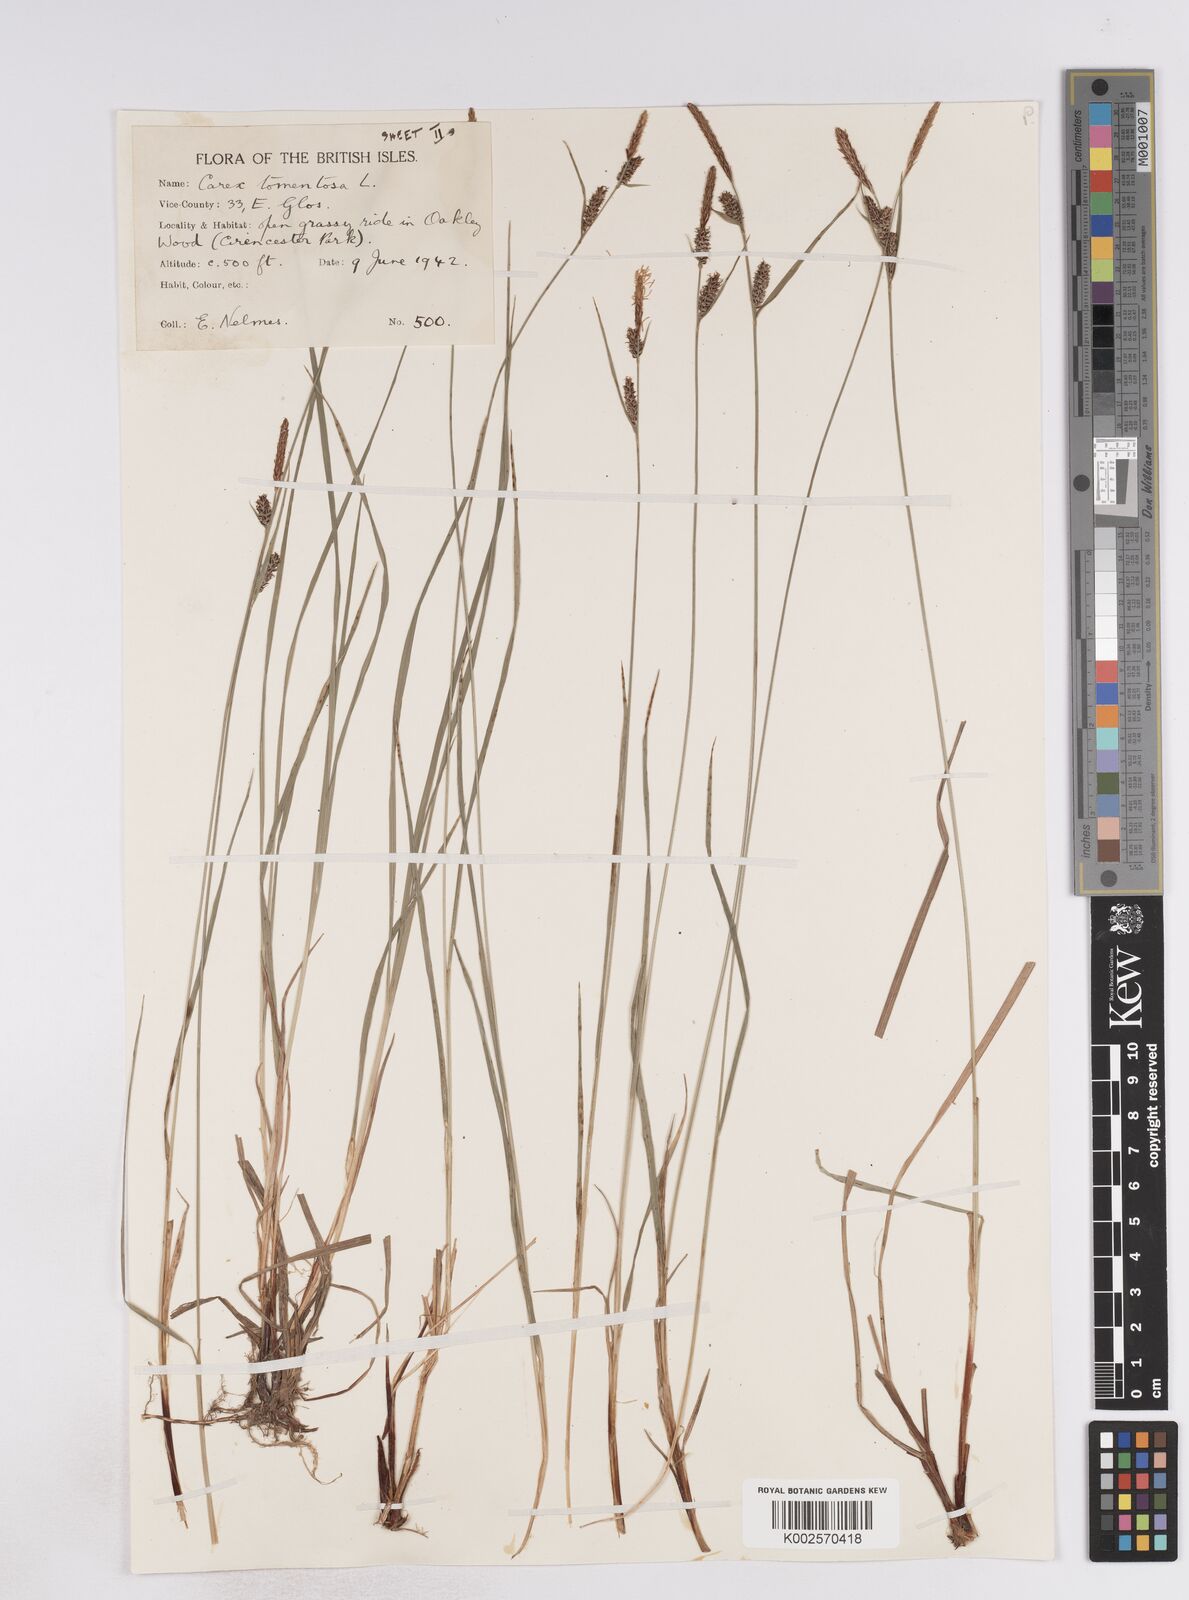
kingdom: Plantae
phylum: Tracheophyta
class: Liliopsida
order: Poales
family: Cyperaceae
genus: Carex
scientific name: Carex montana
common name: Soft-leaved sedge
